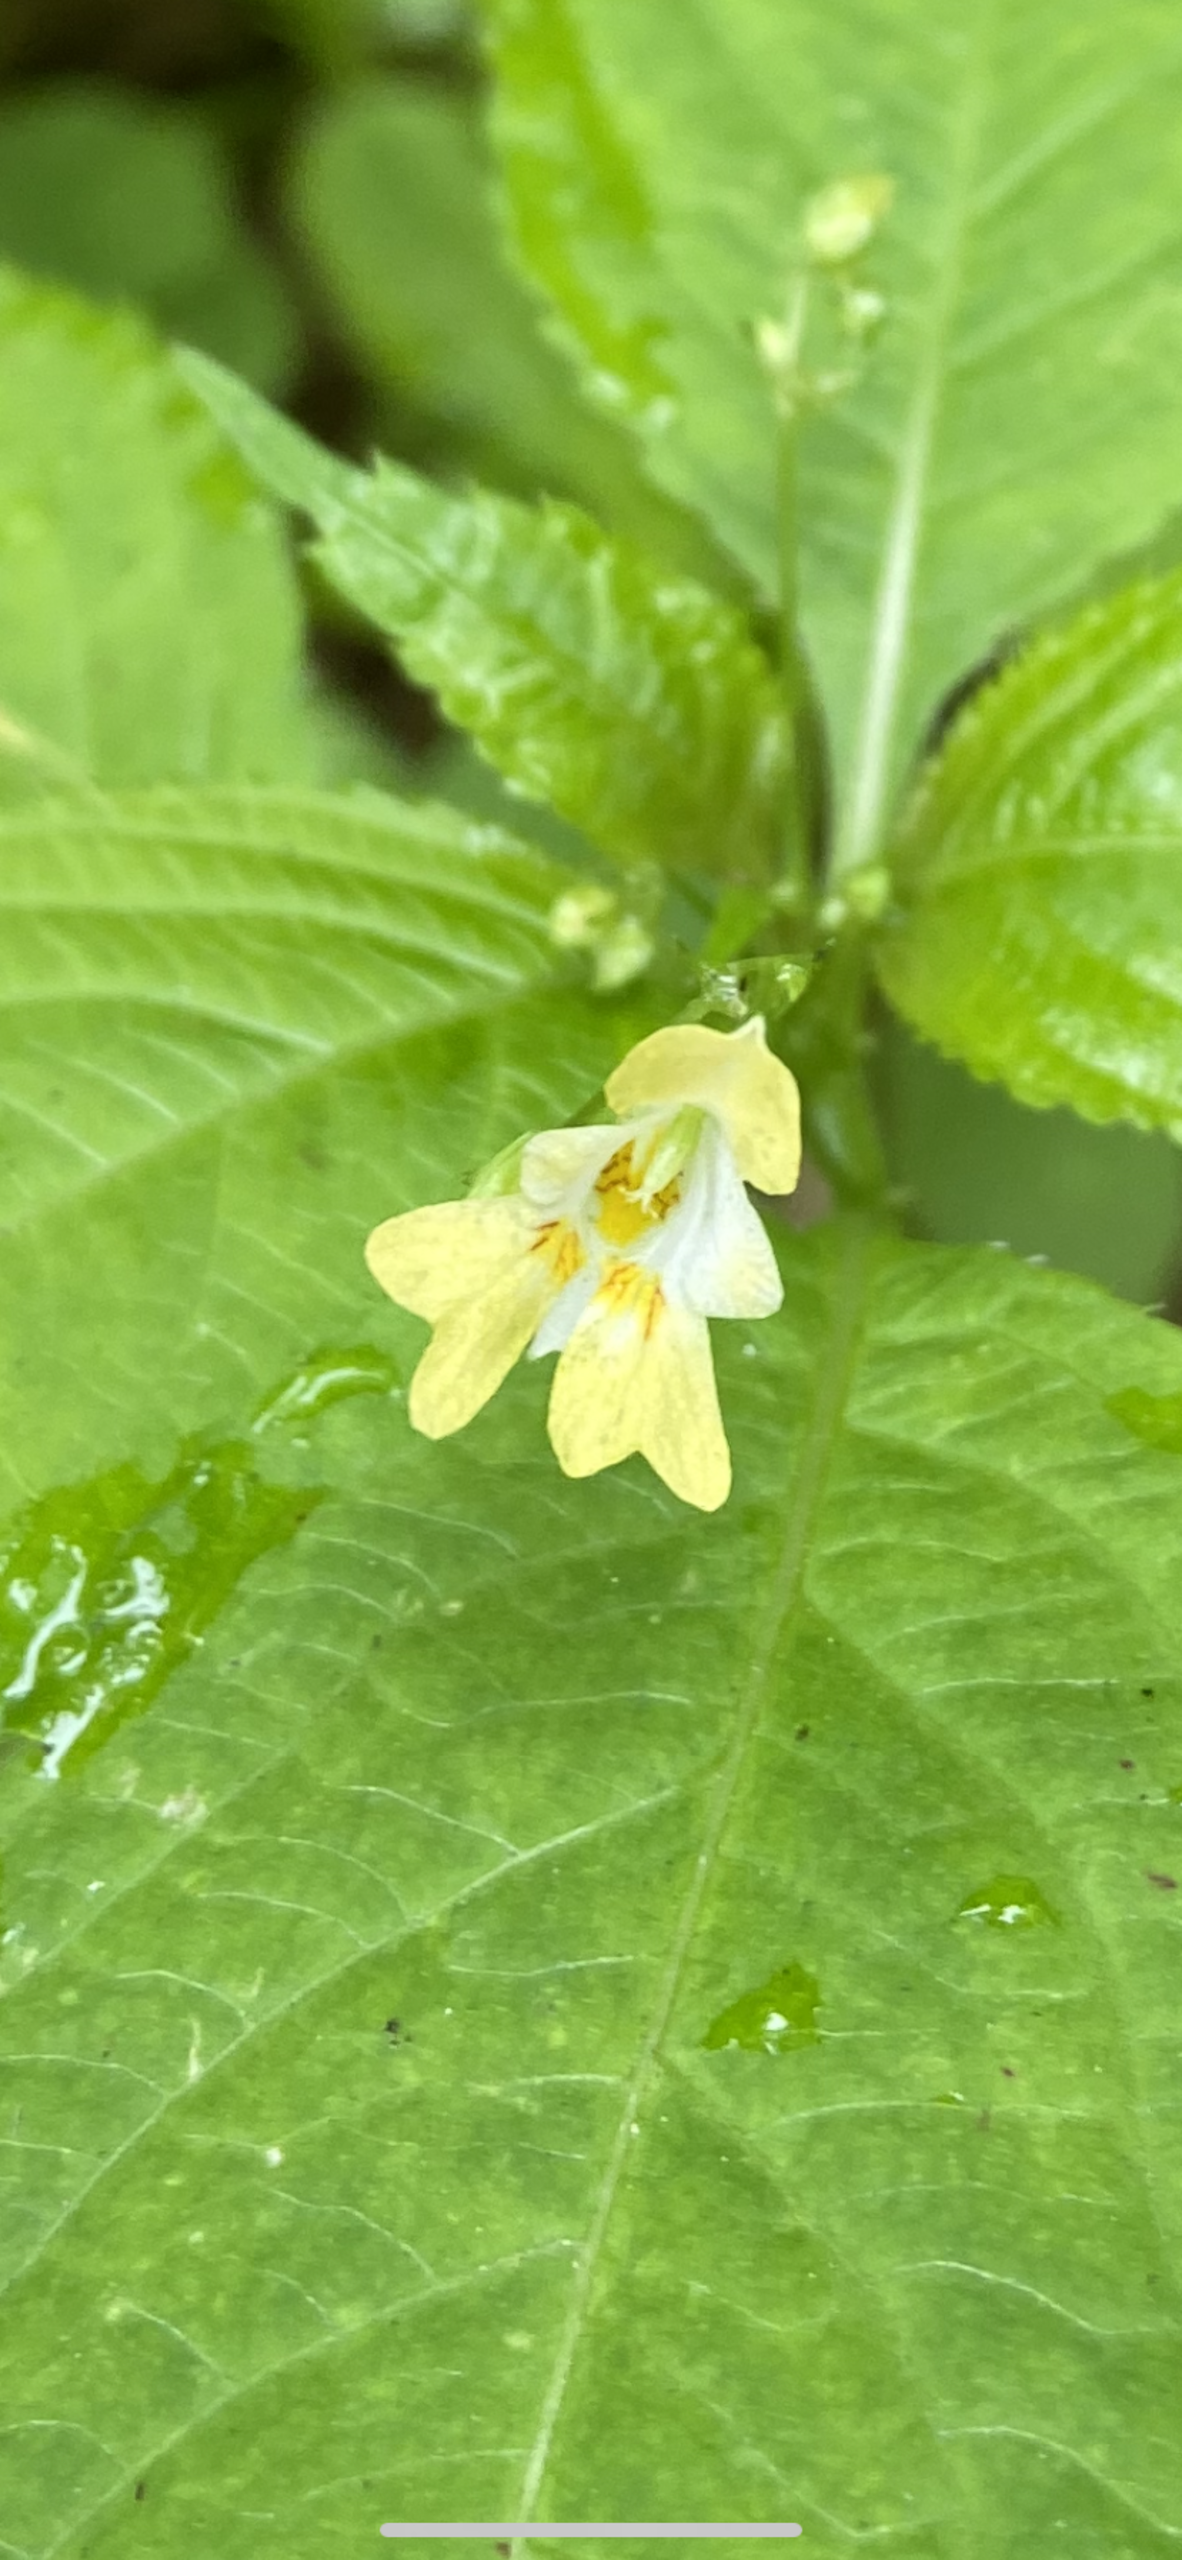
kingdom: Plantae
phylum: Tracheophyta
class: Magnoliopsida
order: Ericales
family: Balsaminaceae
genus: Impatiens
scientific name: Impatiens parviflora
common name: Småblomstret balsamin
